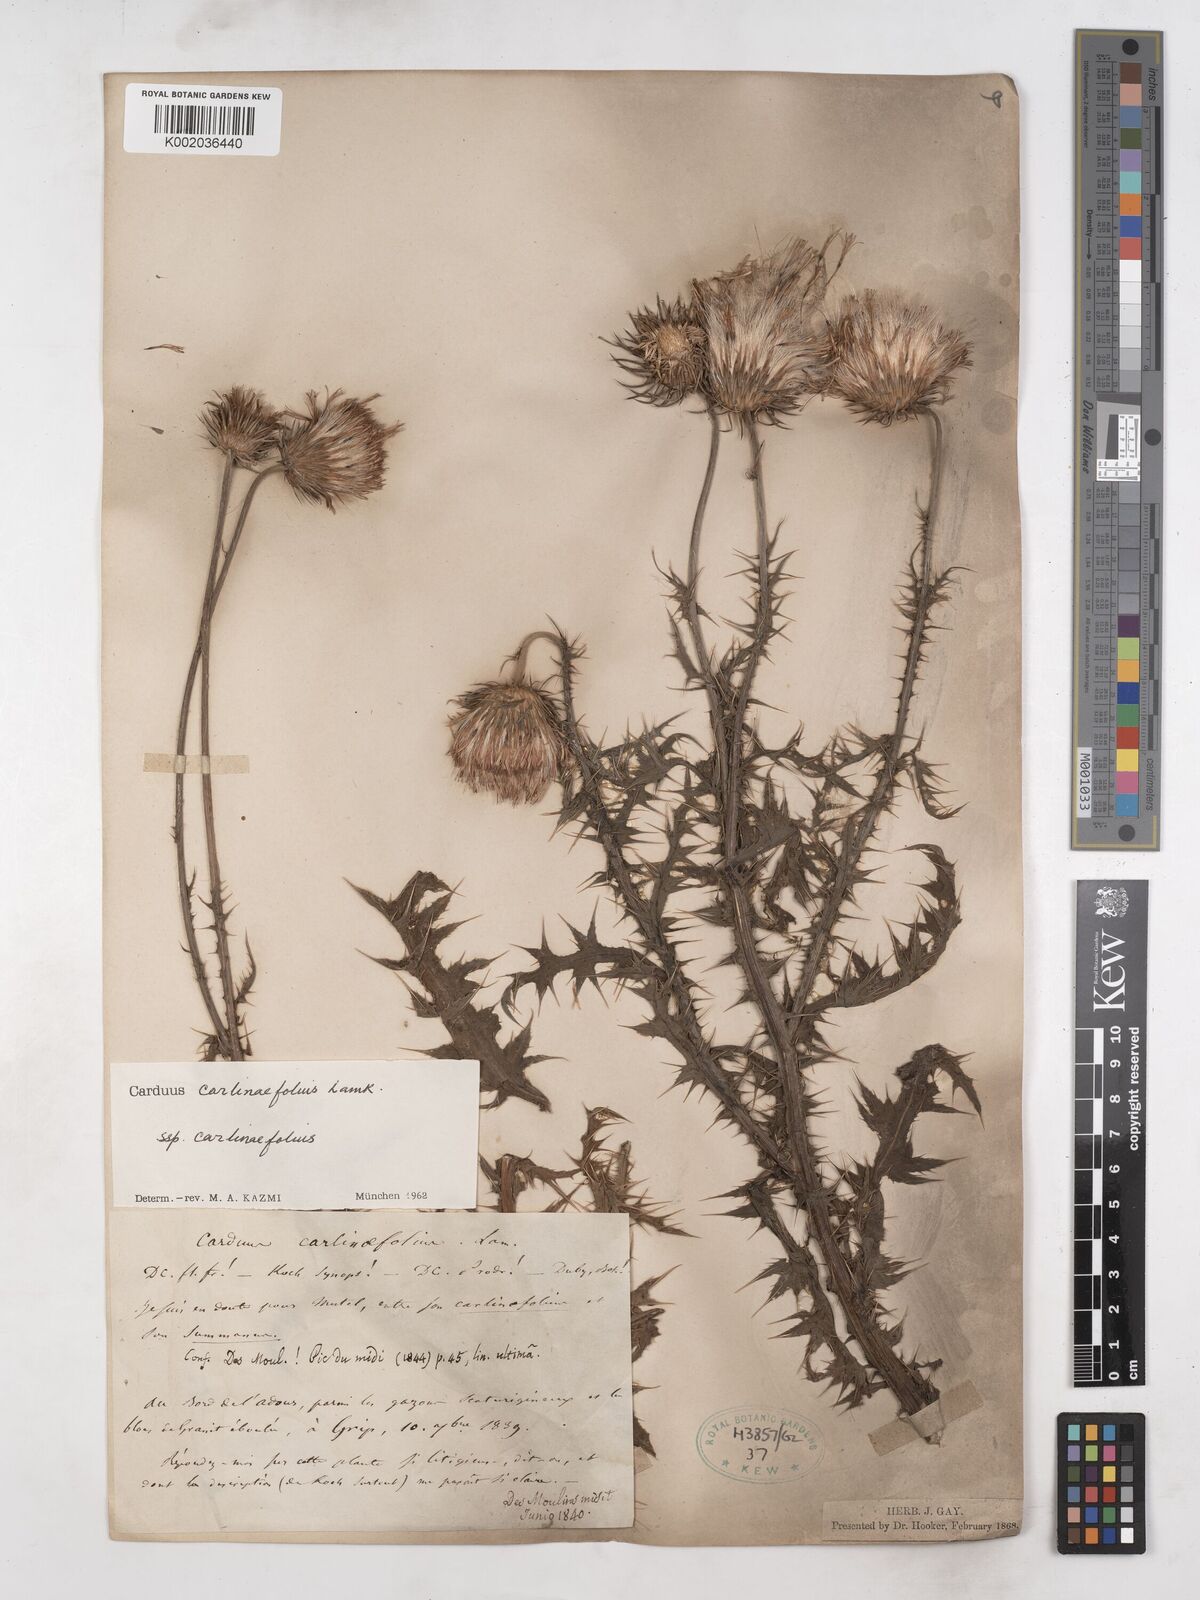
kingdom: Plantae
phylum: Tracheophyta
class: Magnoliopsida
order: Asterales
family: Asteraceae
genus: Carduus
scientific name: Carduus carlinifolius
